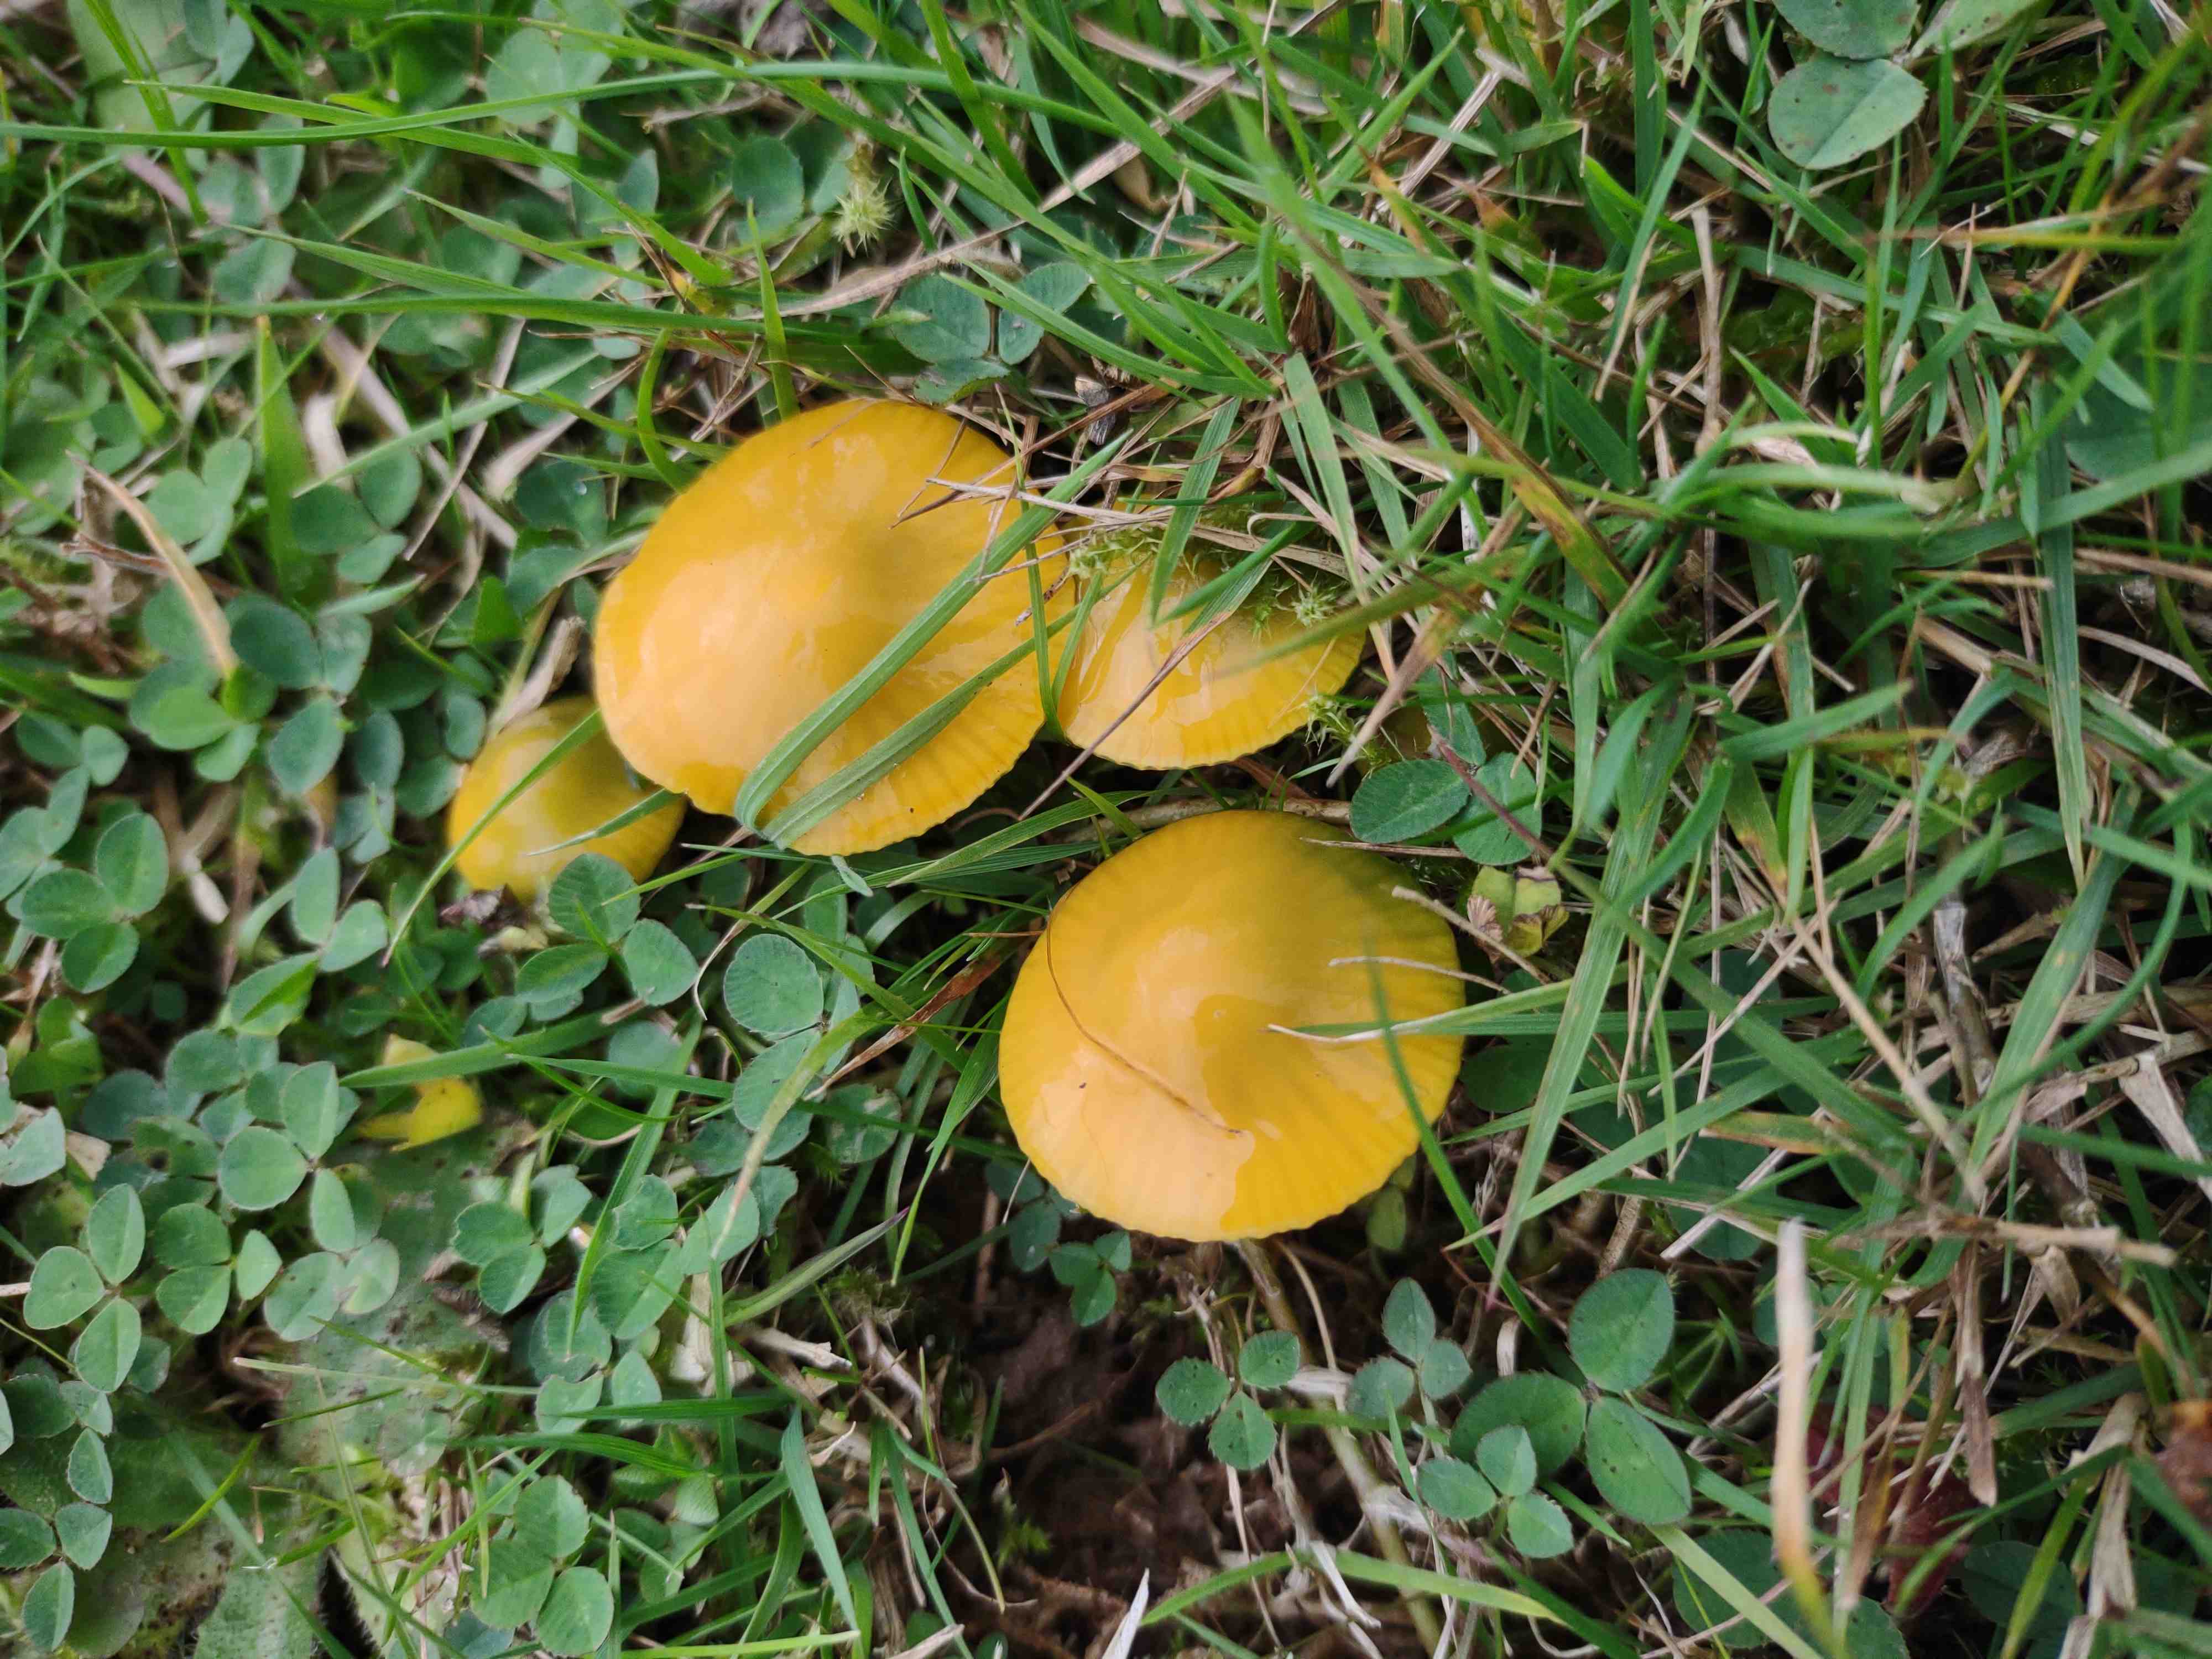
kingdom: Fungi
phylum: Basidiomycota
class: Agaricomycetes
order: Agaricales
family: Hygrophoraceae
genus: Gliophorus
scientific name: Gliophorus psittacinus
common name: papegøje-vokshat
